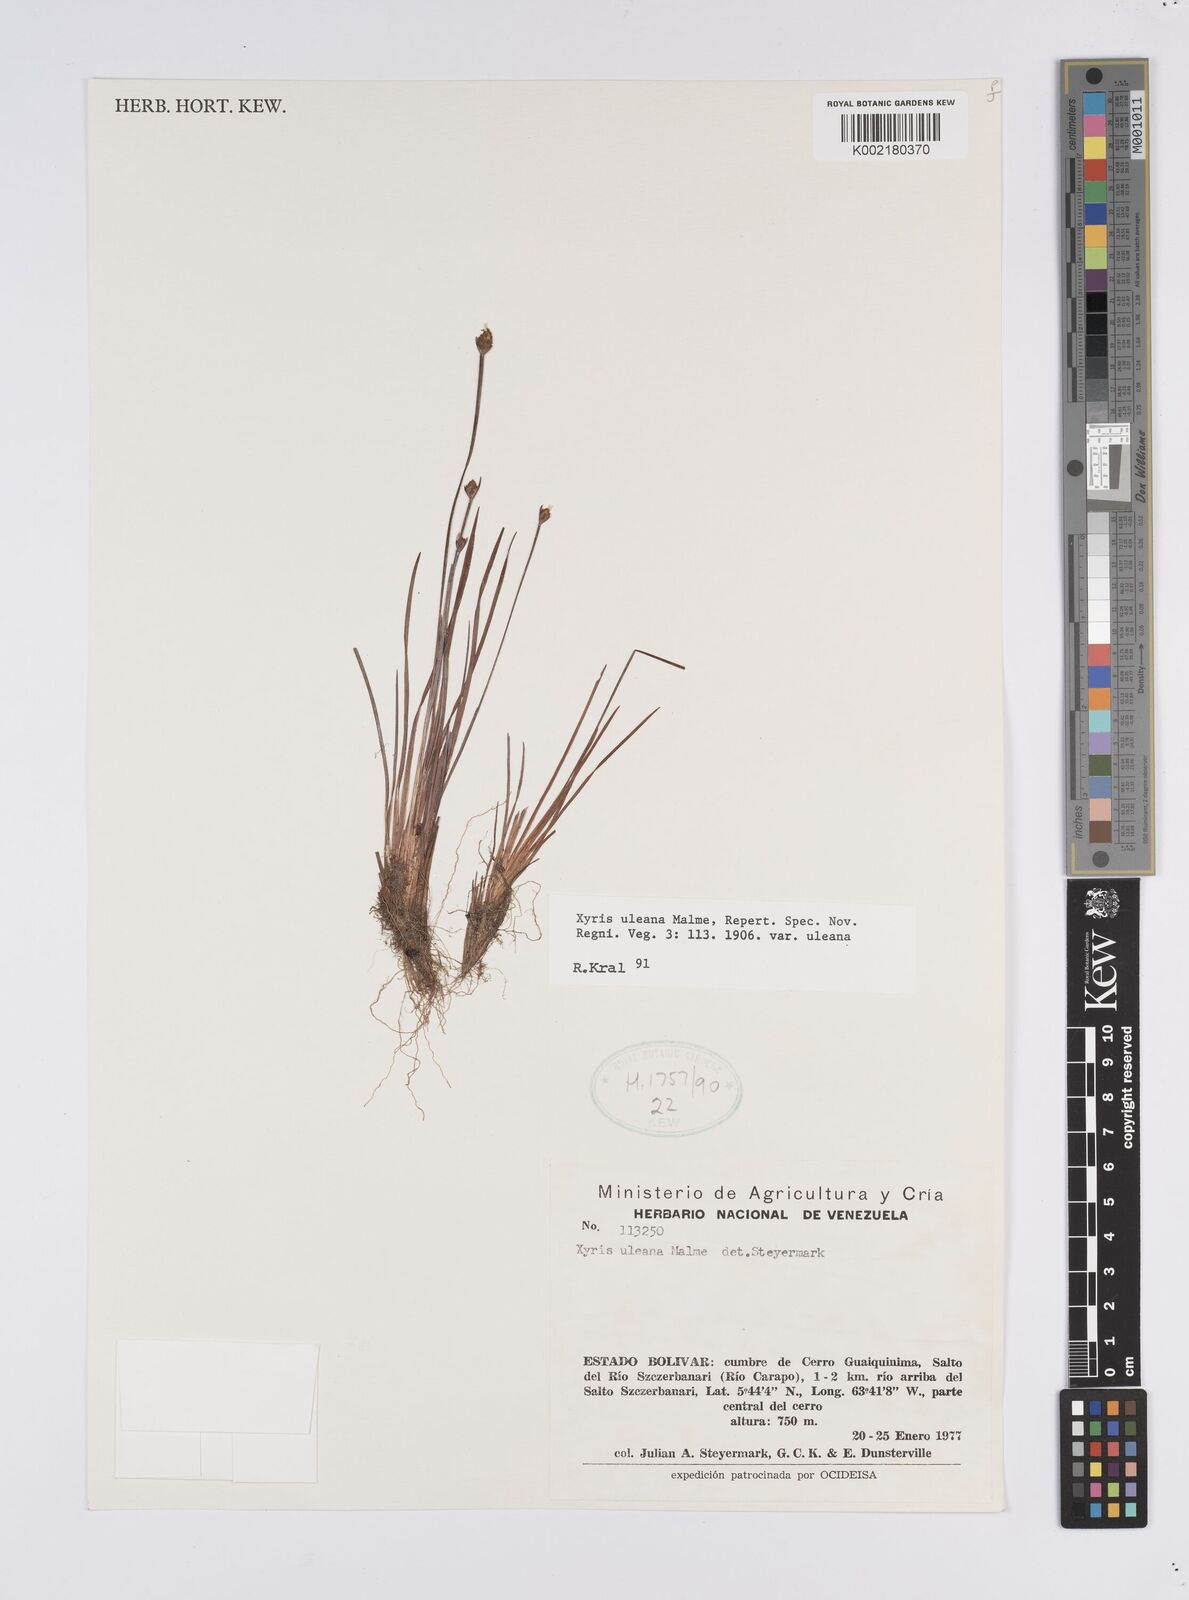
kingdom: Plantae
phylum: Tracheophyta
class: Liliopsida
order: Poales
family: Xyridaceae
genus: Xyris
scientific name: Xyris uleana
